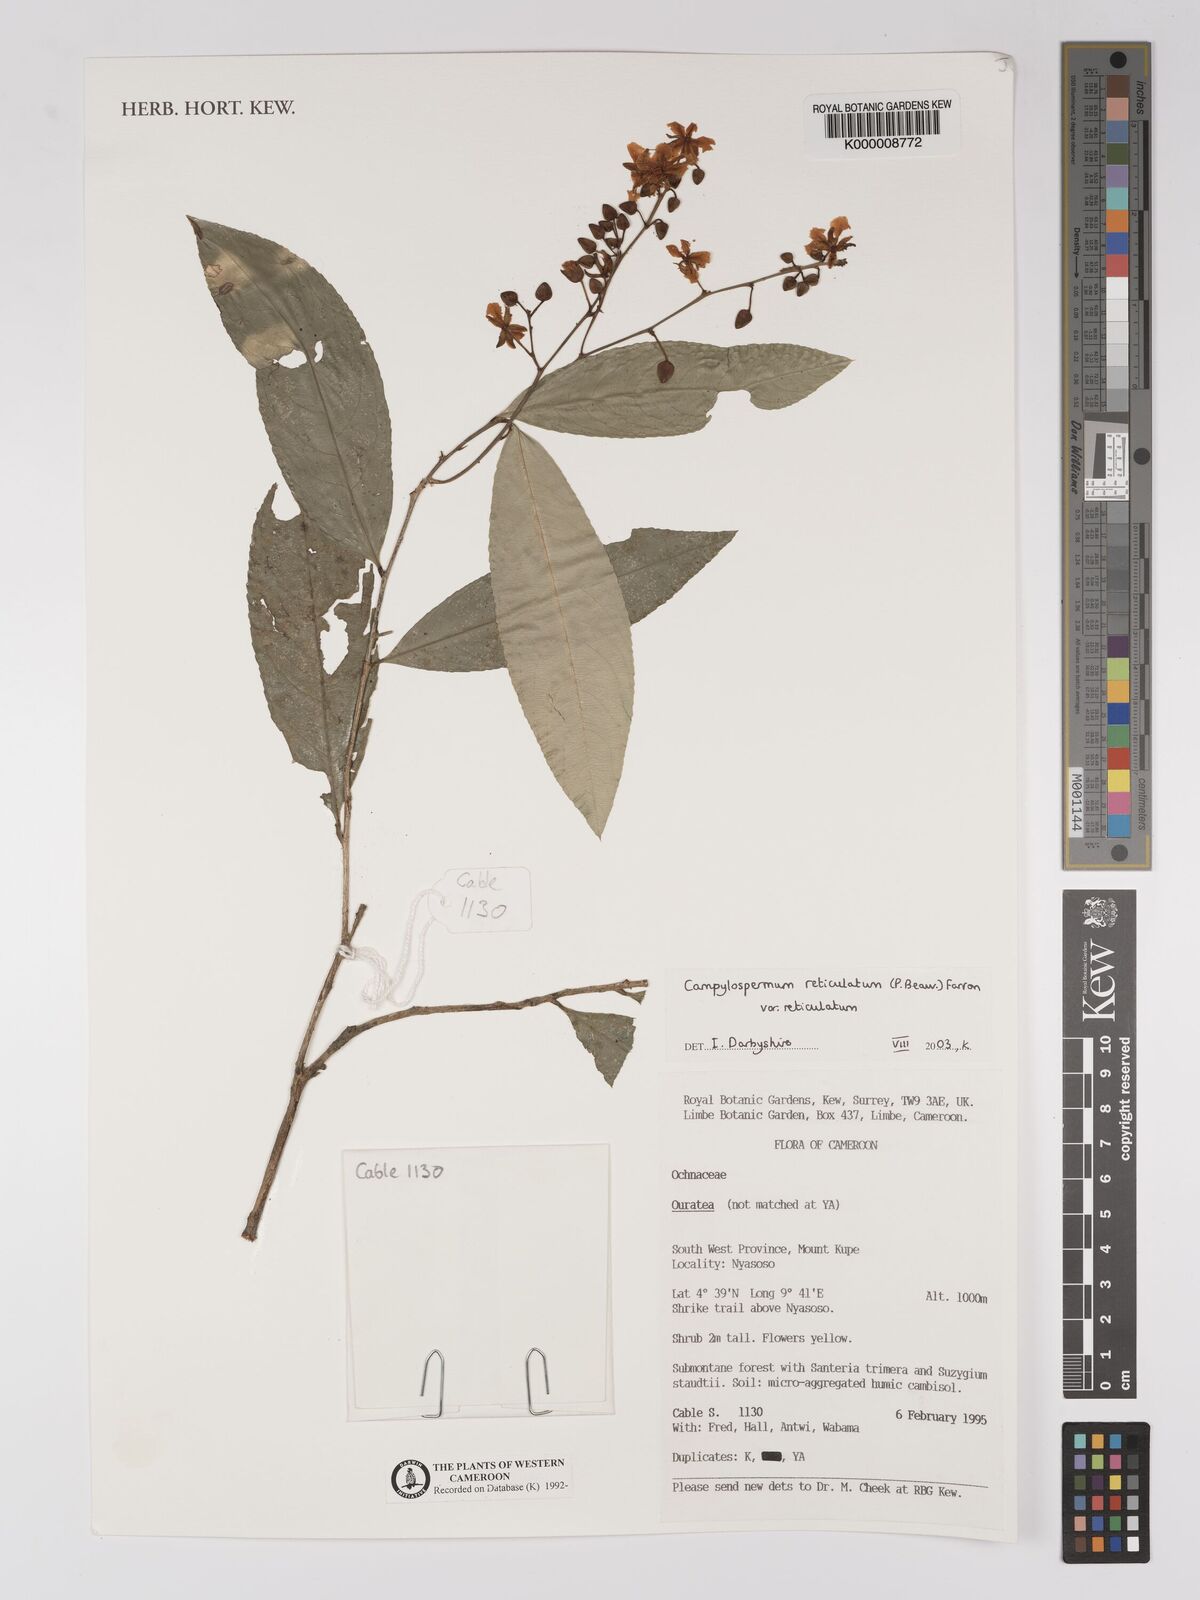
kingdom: Plantae
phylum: Tracheophyta
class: Magnoliopsida
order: Malpighiales
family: Ochnaceae
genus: Campylospermum
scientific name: Campylospermum reticulatum
